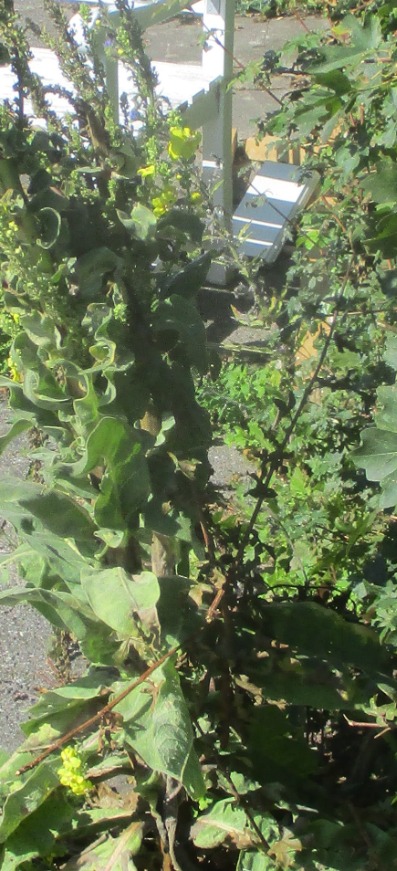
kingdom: Plantae
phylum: Tracheophyta
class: Magnoliopsida
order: Lamiales
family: Scrophulariaceae
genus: Verbascum
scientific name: Verbascum speciosum
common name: Kandelaber-kongelys
